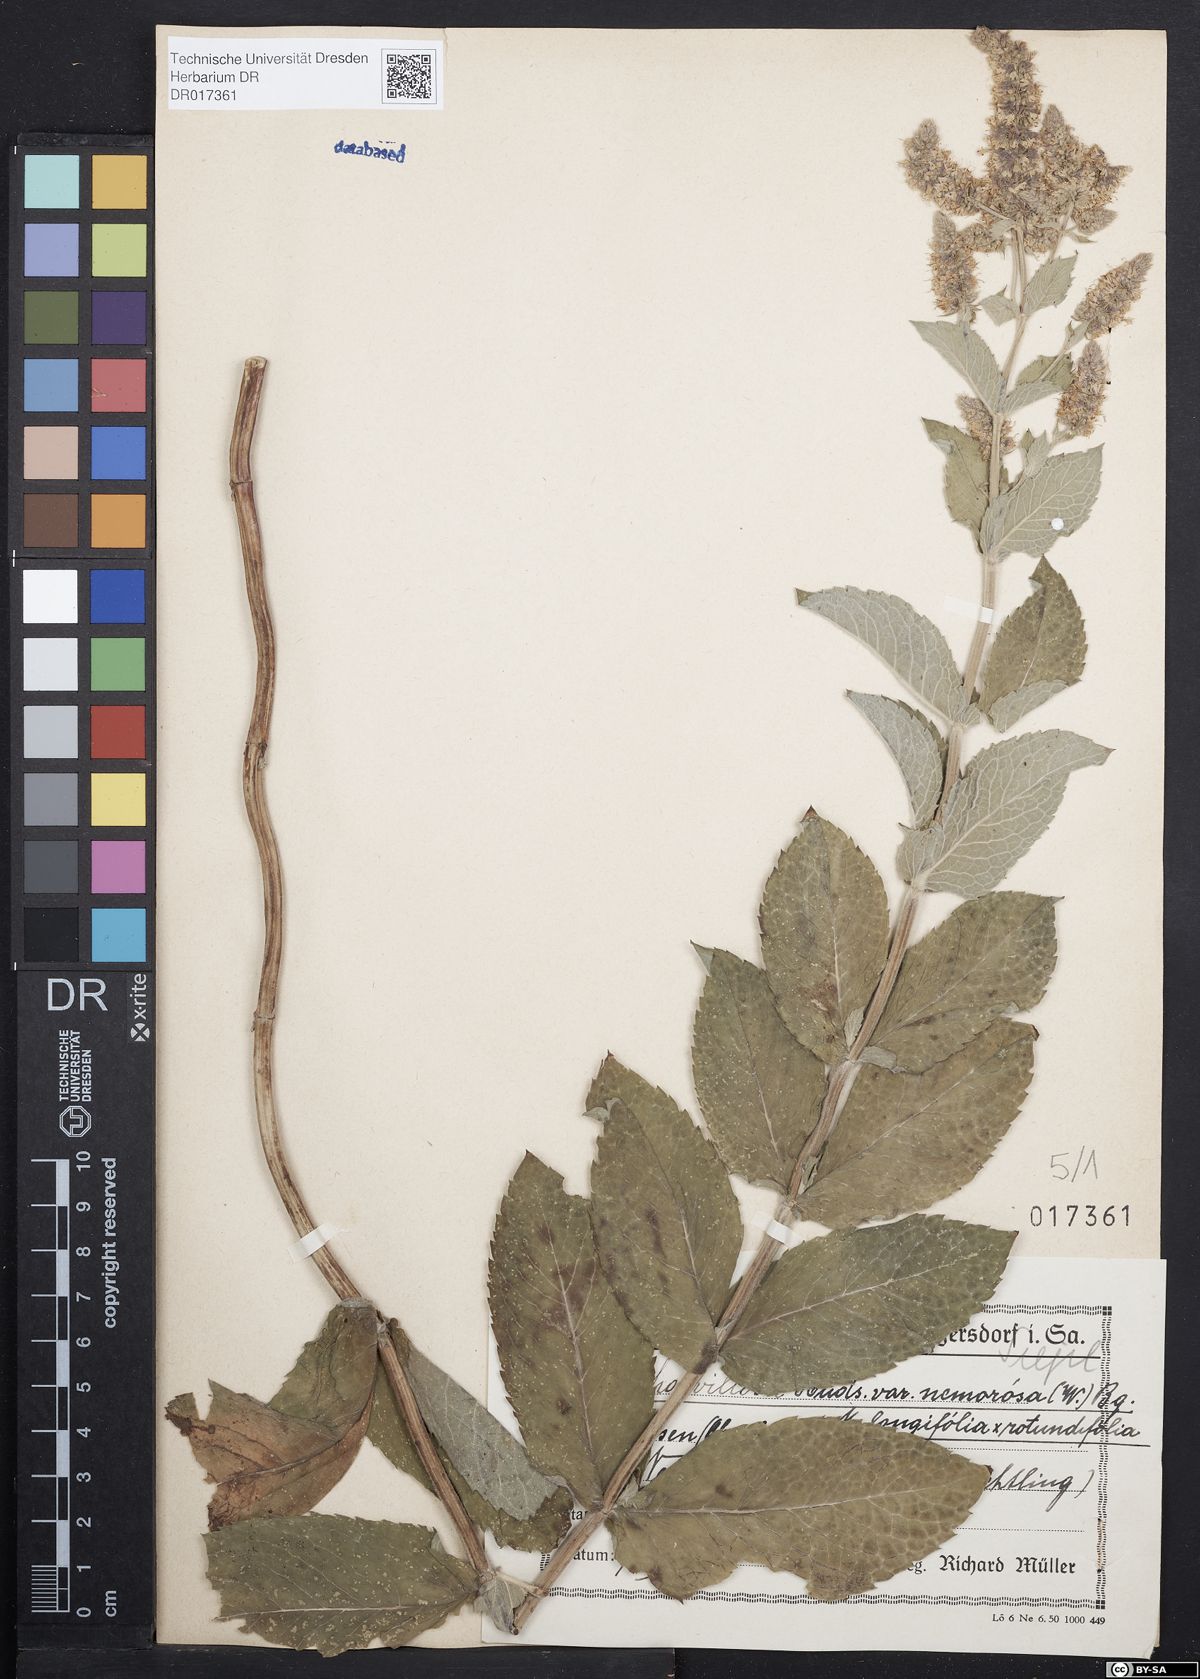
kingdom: Plantae
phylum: Tracheophyta
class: Magnoliopsida
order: Lamiales
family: Lamiaceae
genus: Mentha
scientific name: Mentha villosa
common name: Apple mint
